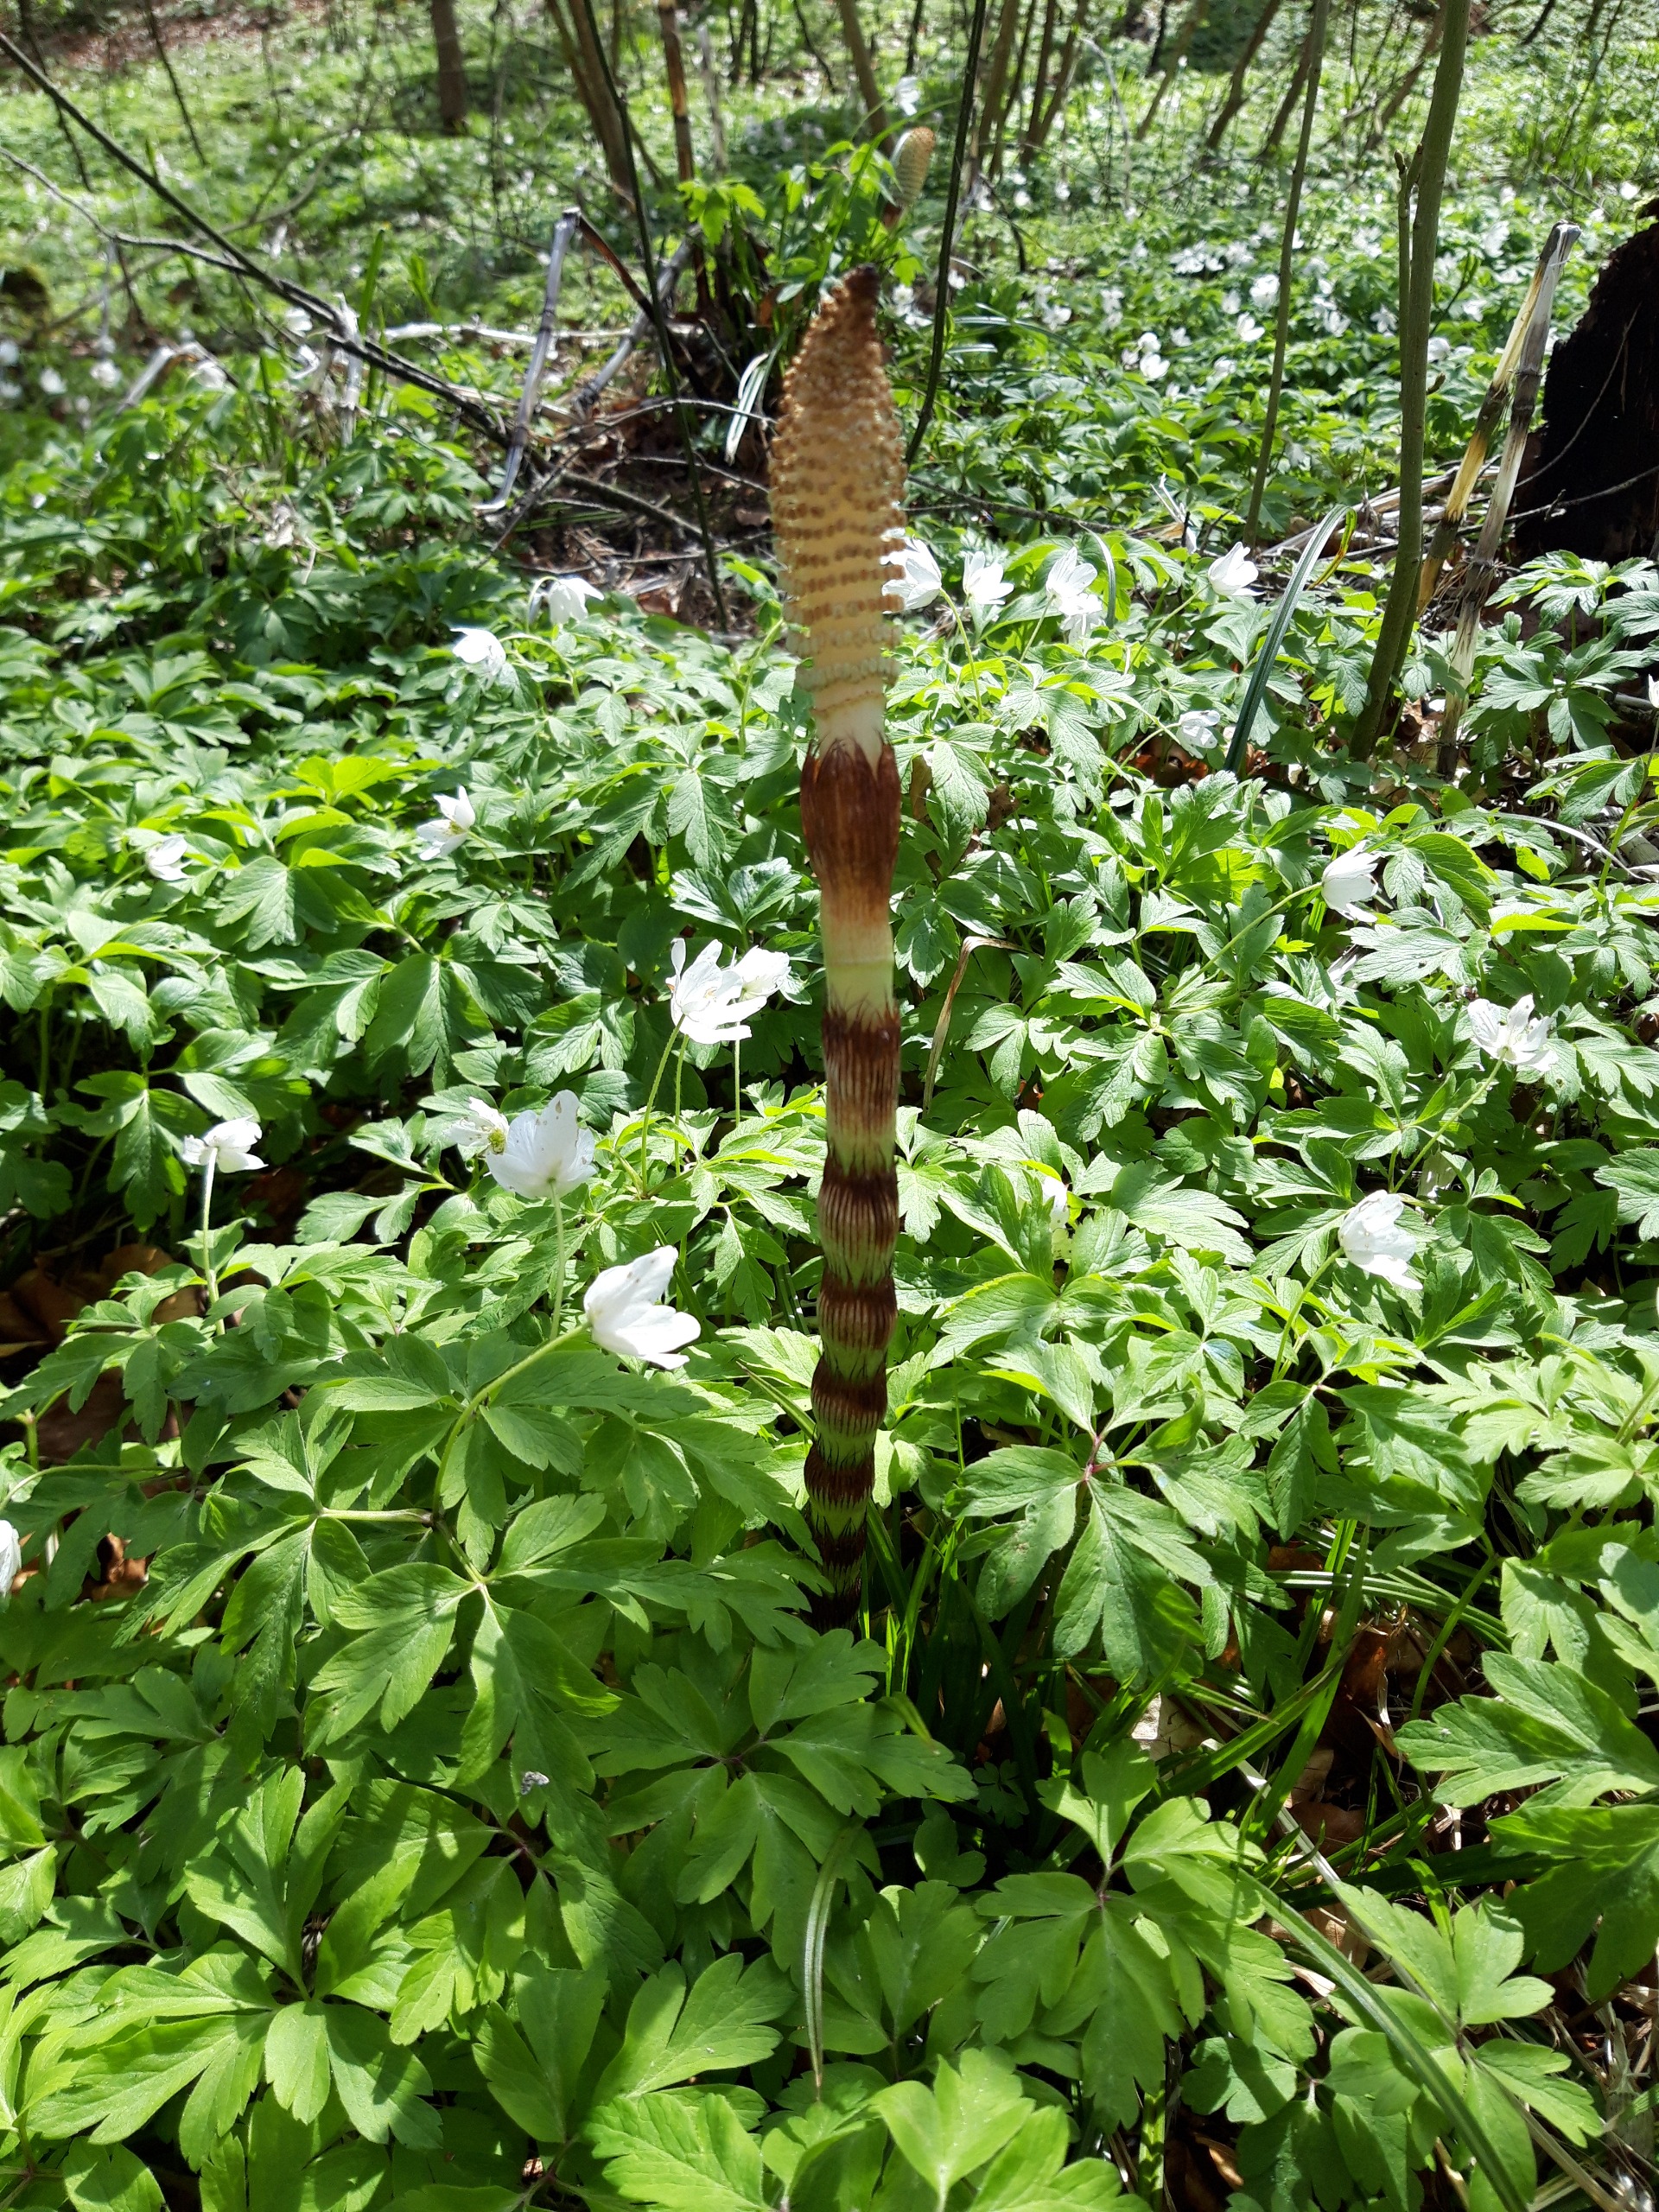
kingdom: Plantae
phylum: Tracheophyta
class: Polypodiopsida
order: Equisetales
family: Equisetaceae
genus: Equisetum
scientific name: Equisetum telmateia
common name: Elfenbens-padderok
